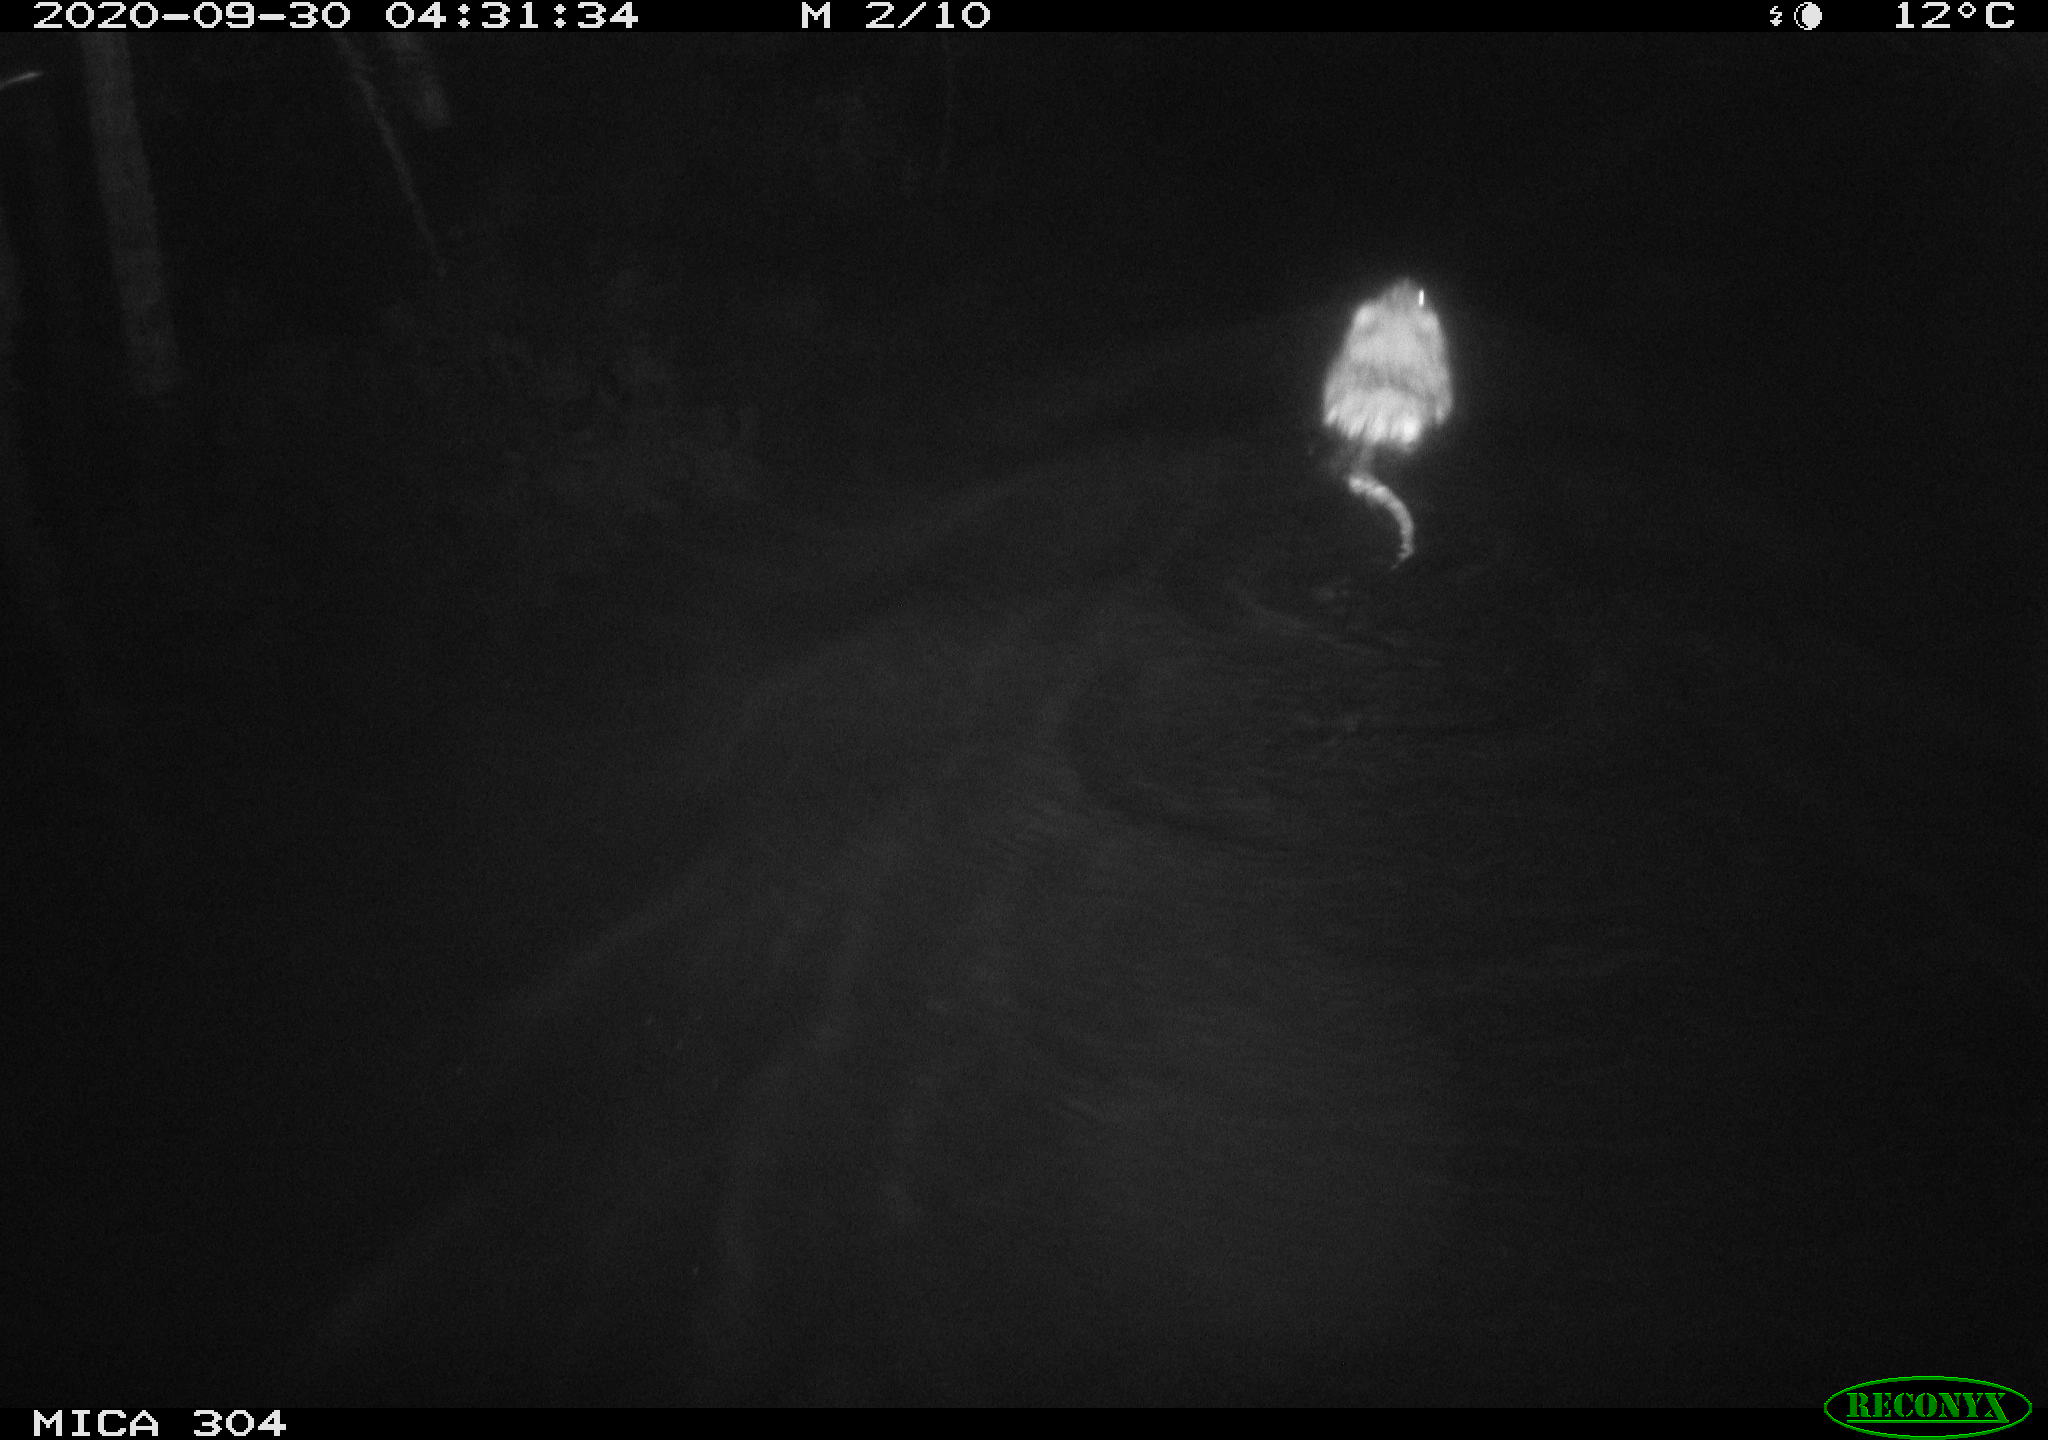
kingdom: Animalia
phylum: Chordata
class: Mammalia
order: Rodentia
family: Cricetidae
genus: Ondatra
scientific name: Ondatra zibethicus
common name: Muskrat
